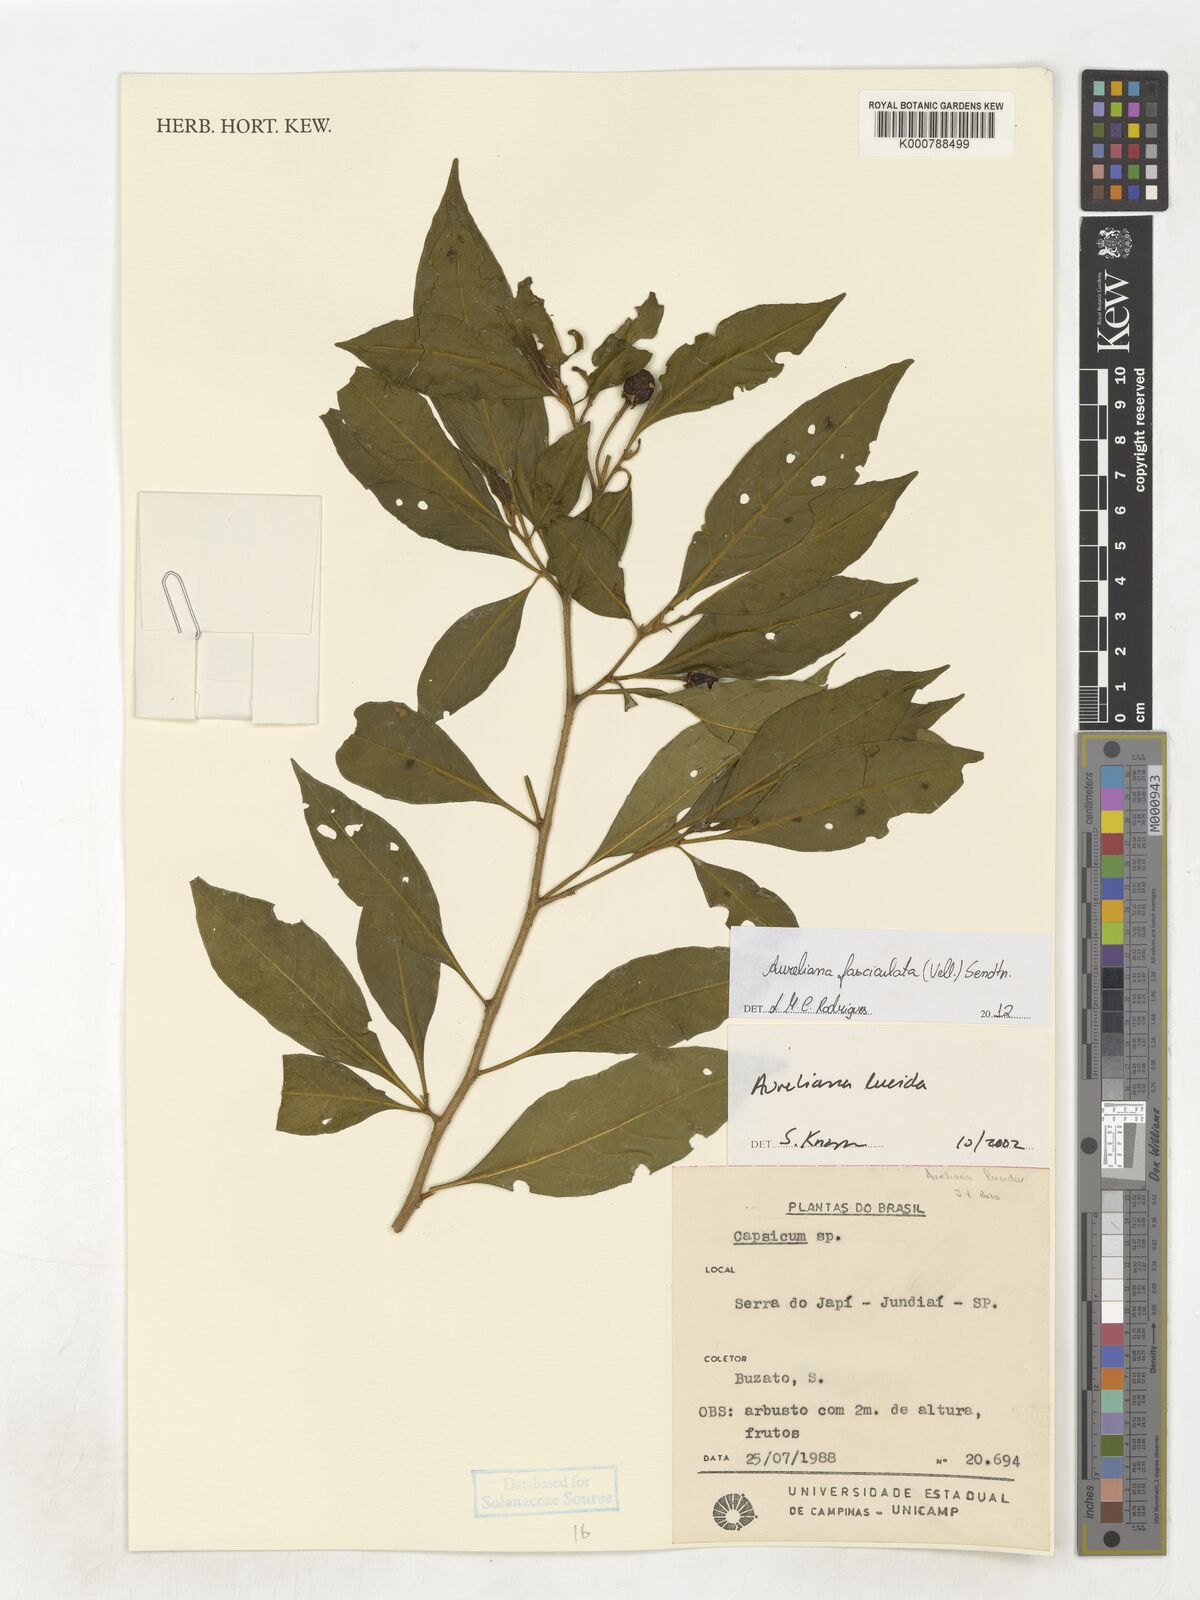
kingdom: Plantae
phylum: Tracheophyta
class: Magnoliopsida
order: Solanales
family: Solanaceae
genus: Athenaea
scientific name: Athenaea fasciculata
